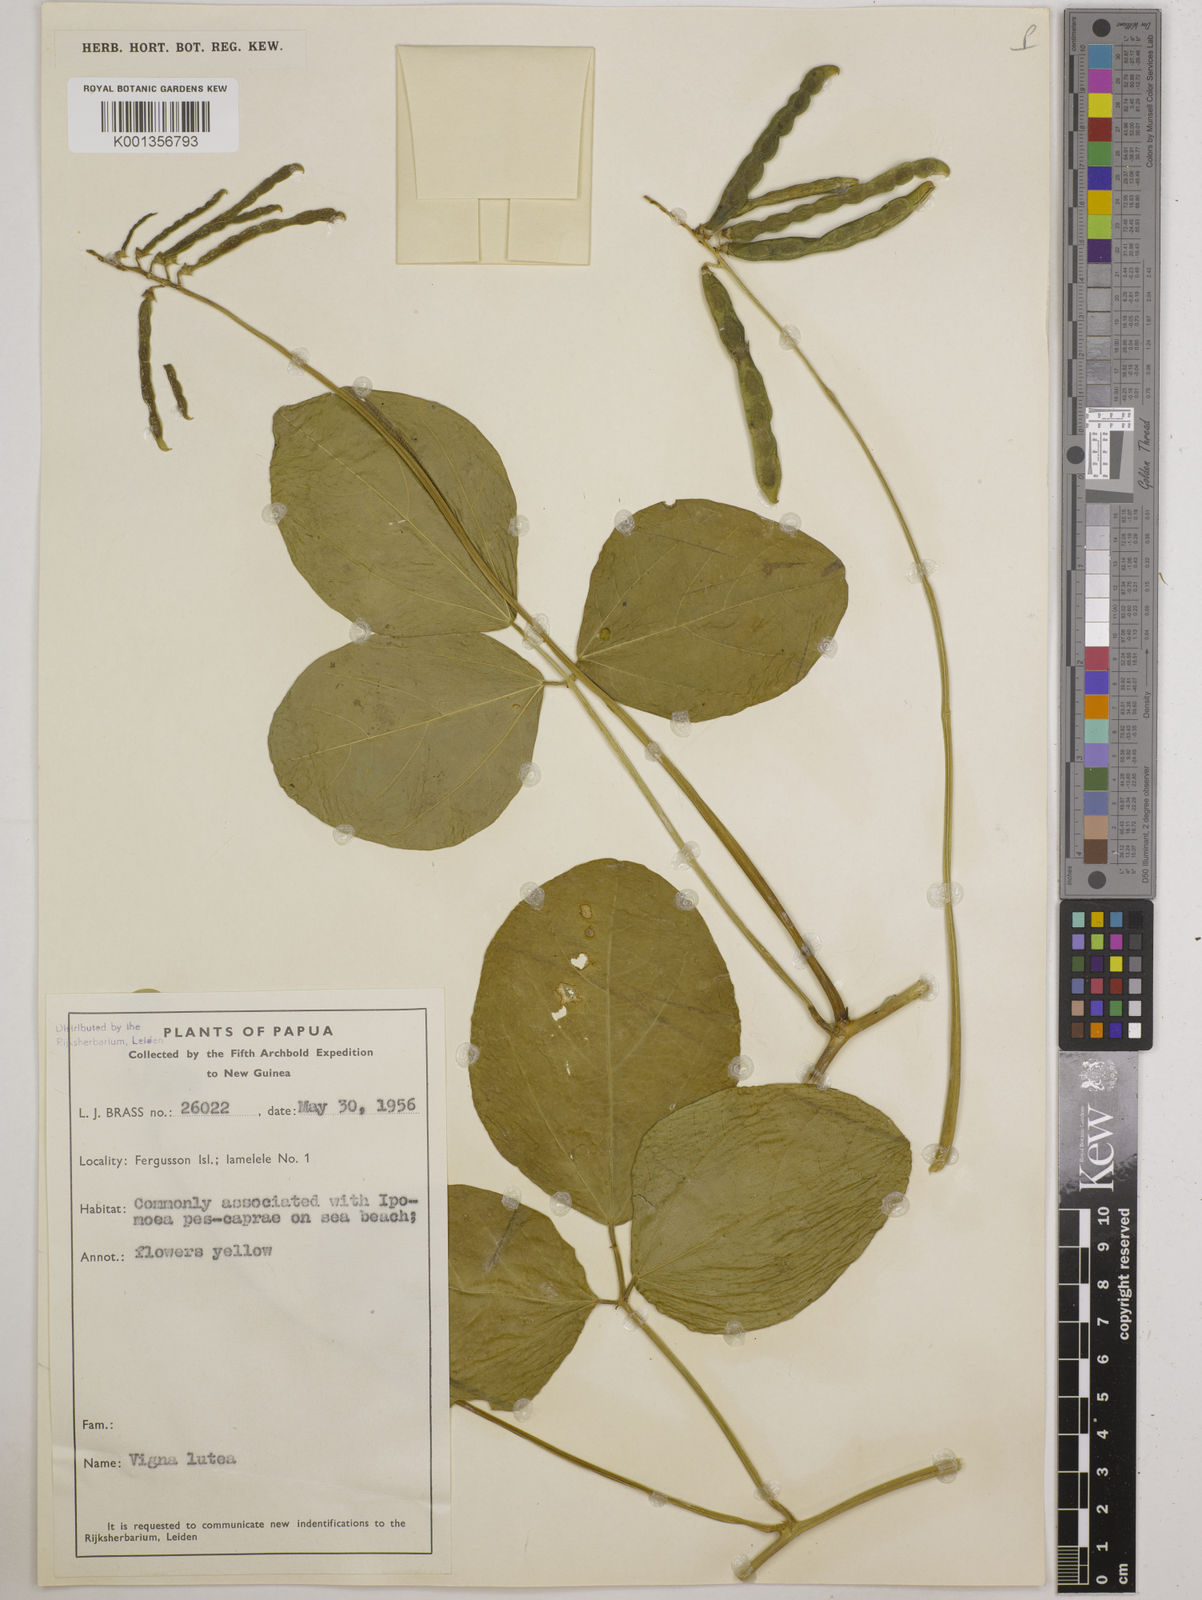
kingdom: Plantae
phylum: Tracheophyta
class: Magnoliopsida
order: Fabales
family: Fabaceae
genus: Vigna
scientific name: Vigna marina
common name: Dune-bean
